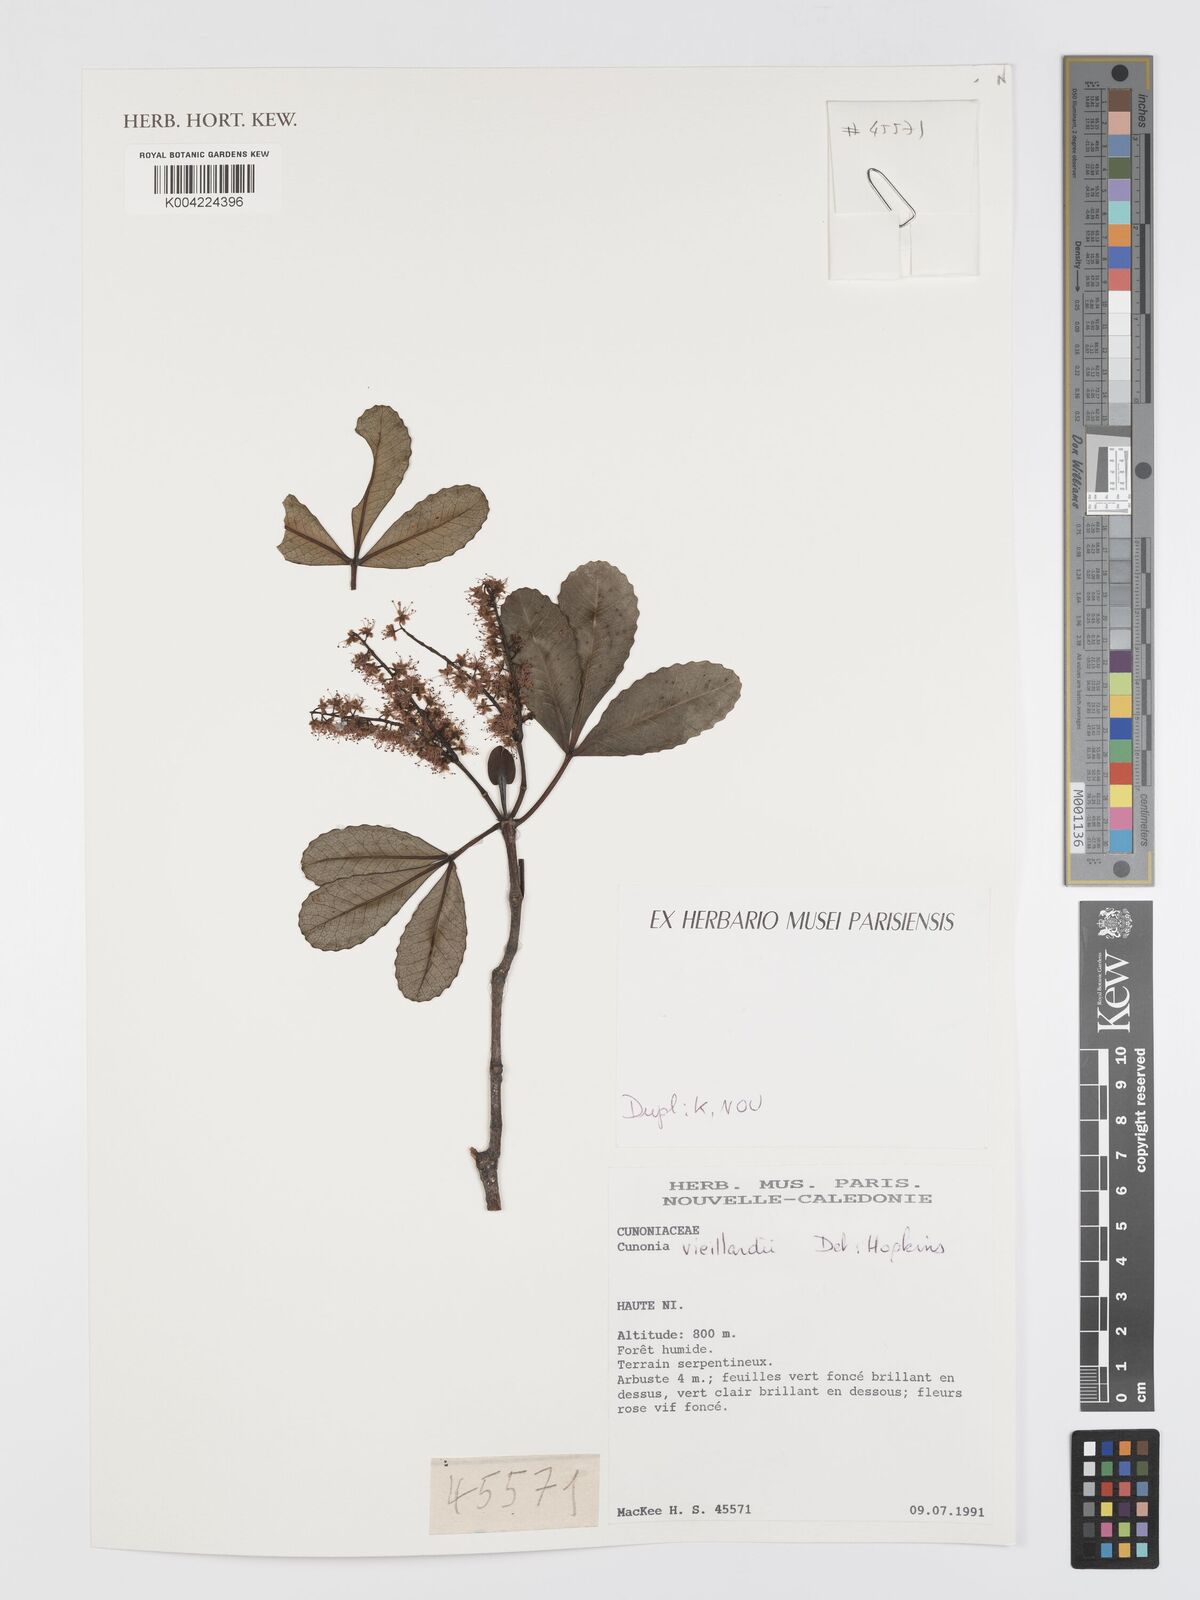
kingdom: Plantae
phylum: Tracheophyta
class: Magnoliopsida
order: Oxalidales
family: Cunoniaceae
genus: Cunonia
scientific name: Cunonia vieillardii
